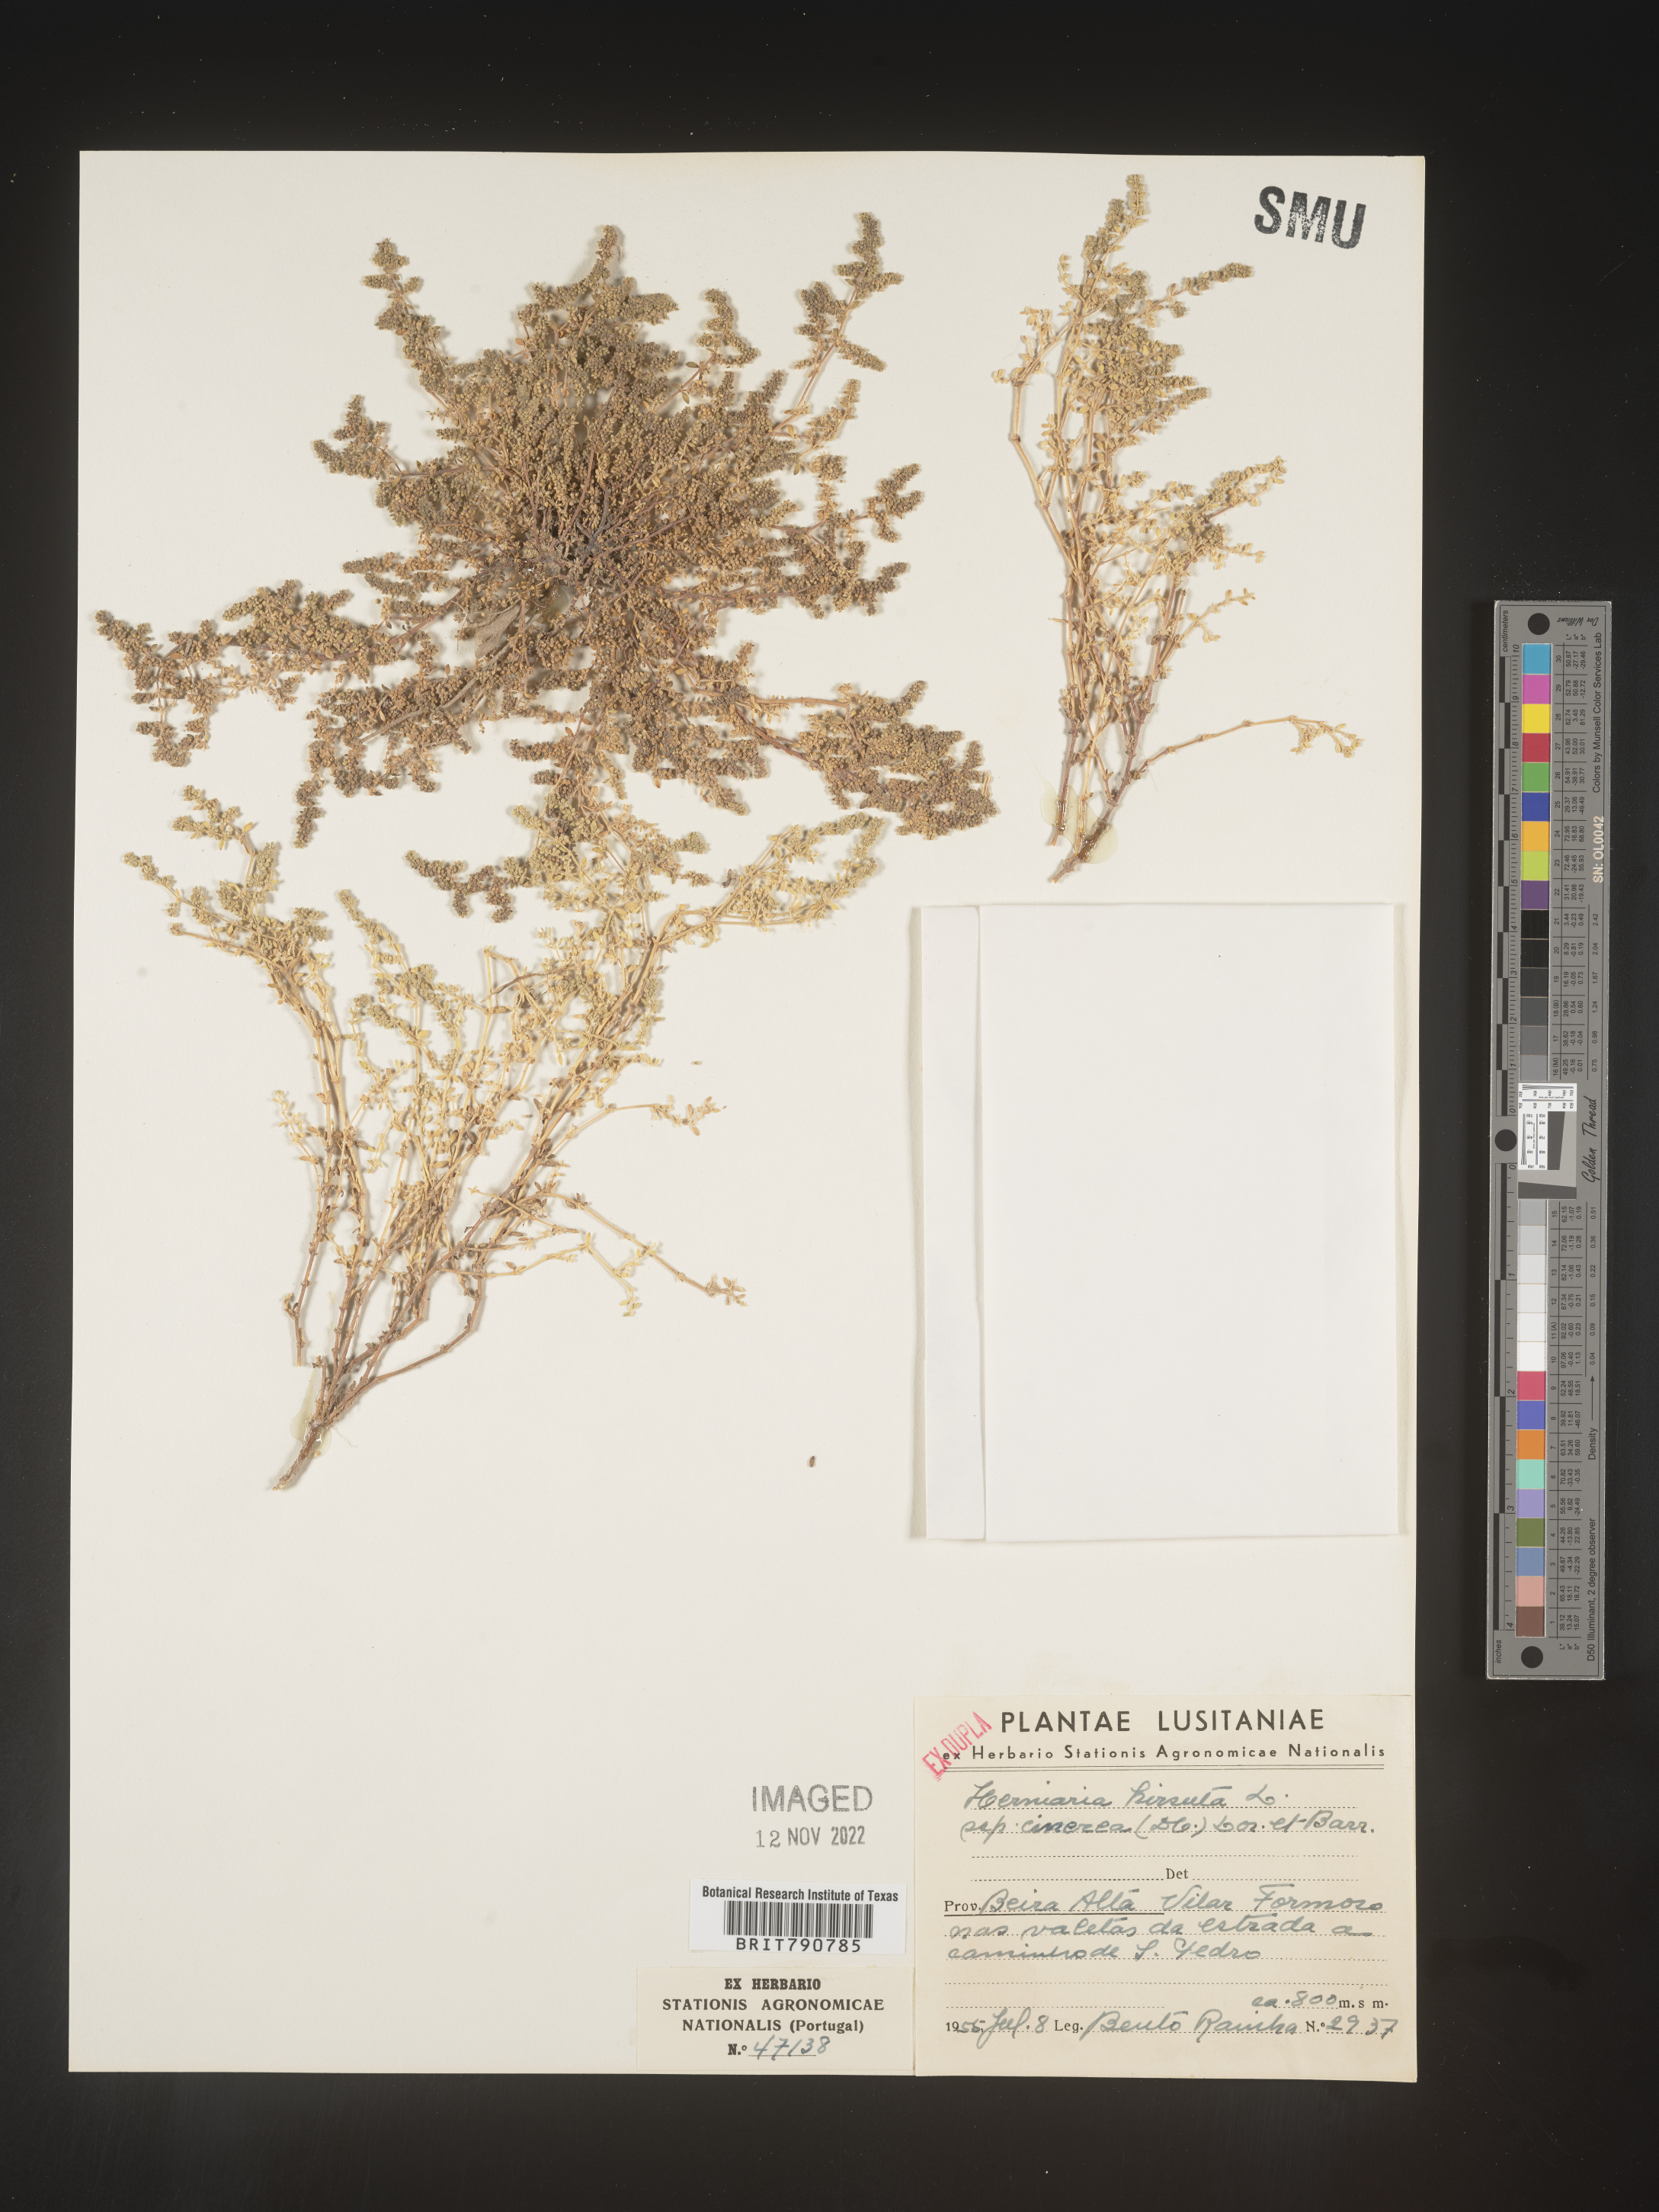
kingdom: Plantae
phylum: Tracheophyta
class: Magnoliopsida
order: Caryophyllales
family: Caryophyllaceae
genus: Herniaria
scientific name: Herniaria
